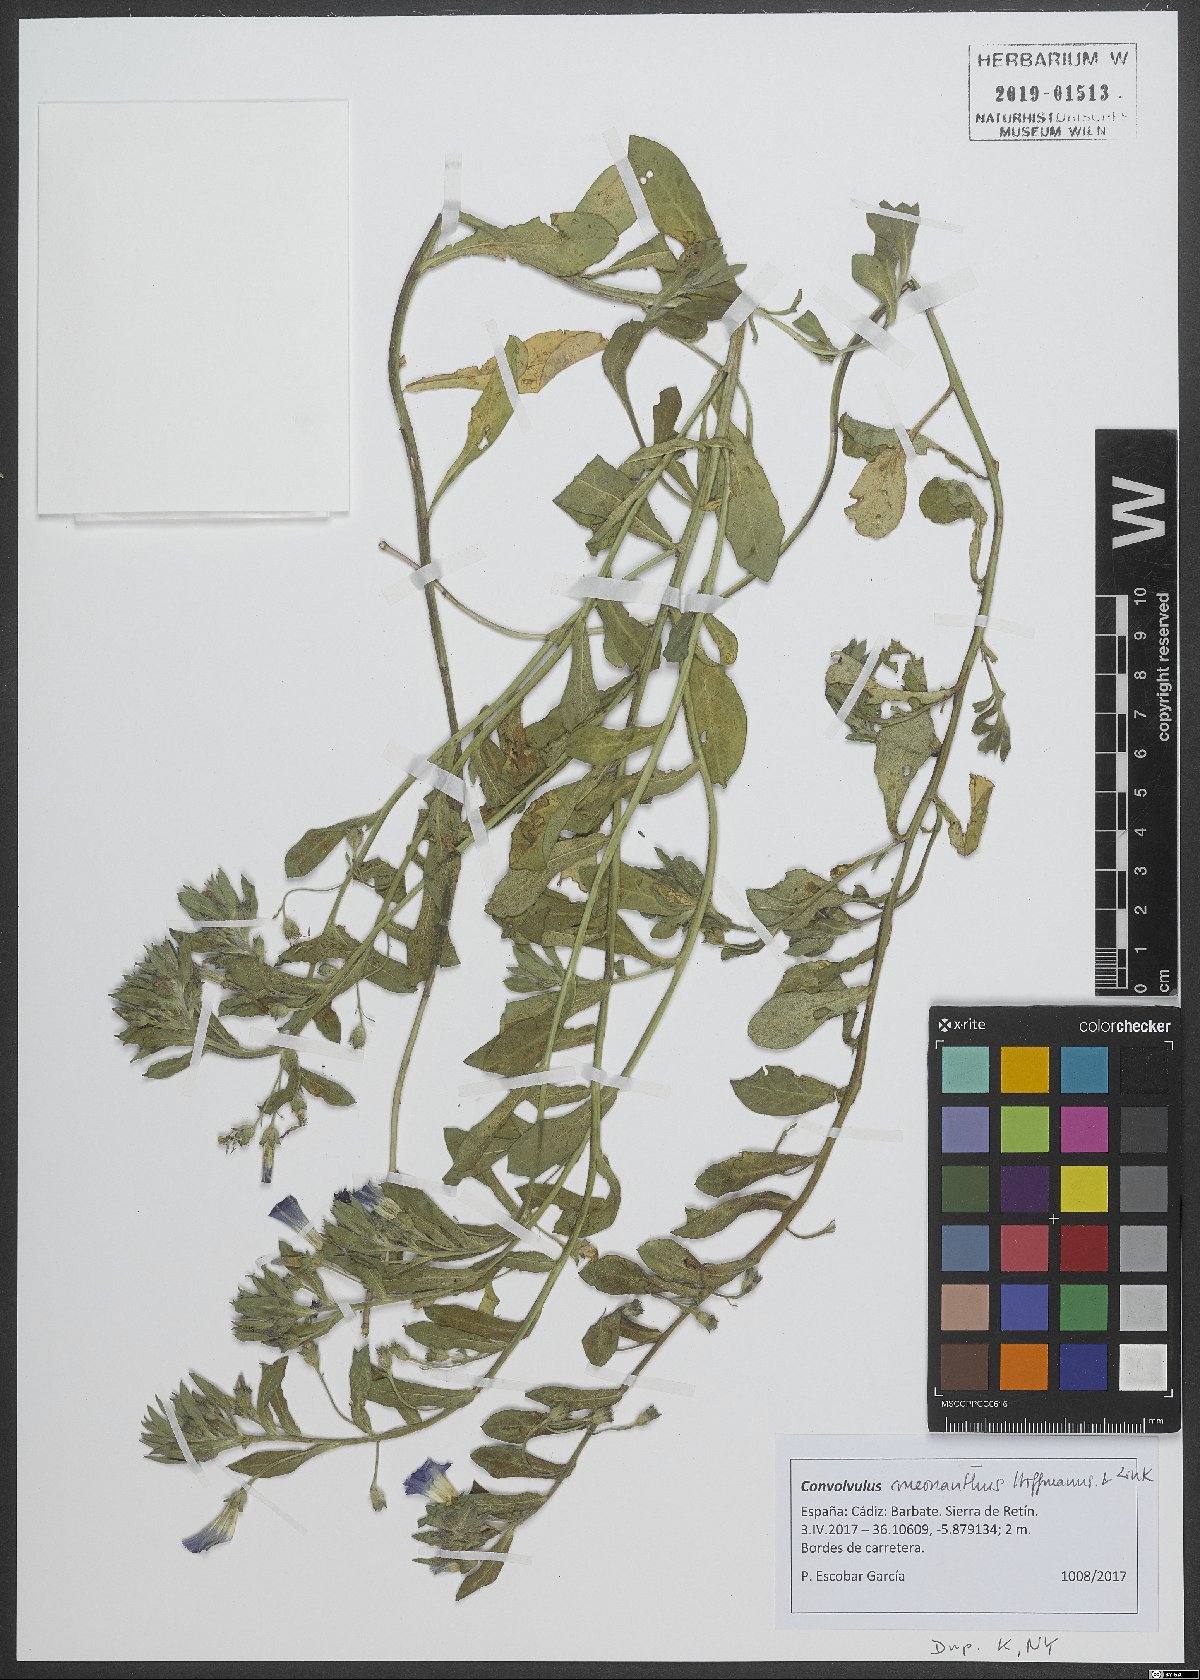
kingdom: Plantae
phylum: Tracheophyta
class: Magnoliopsida
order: Solanales
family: Convolvulaceae
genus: Convolvulus
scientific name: Convolvulus meonanthus
